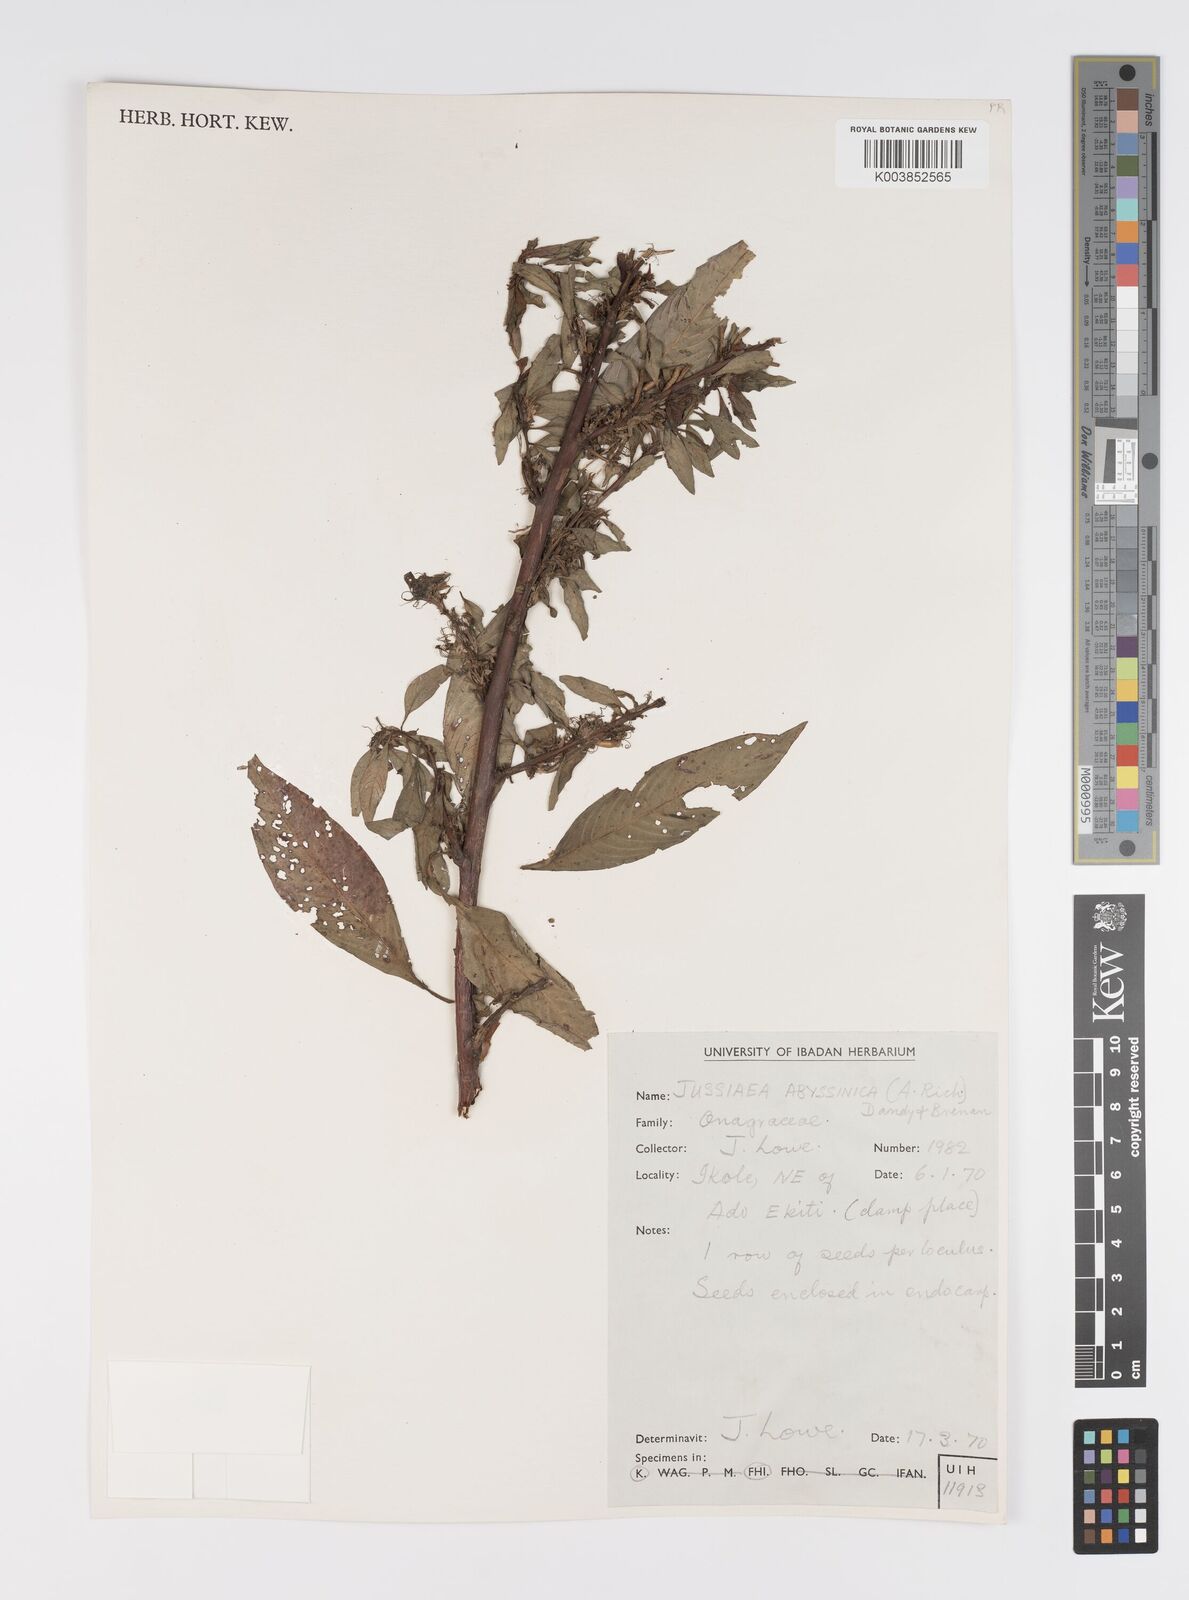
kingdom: Plantae
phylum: Tracheophyta
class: Magnoliopsida
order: Myrtales
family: Onagraceae
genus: Ludwigia
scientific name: Ludwigia abyssinica
